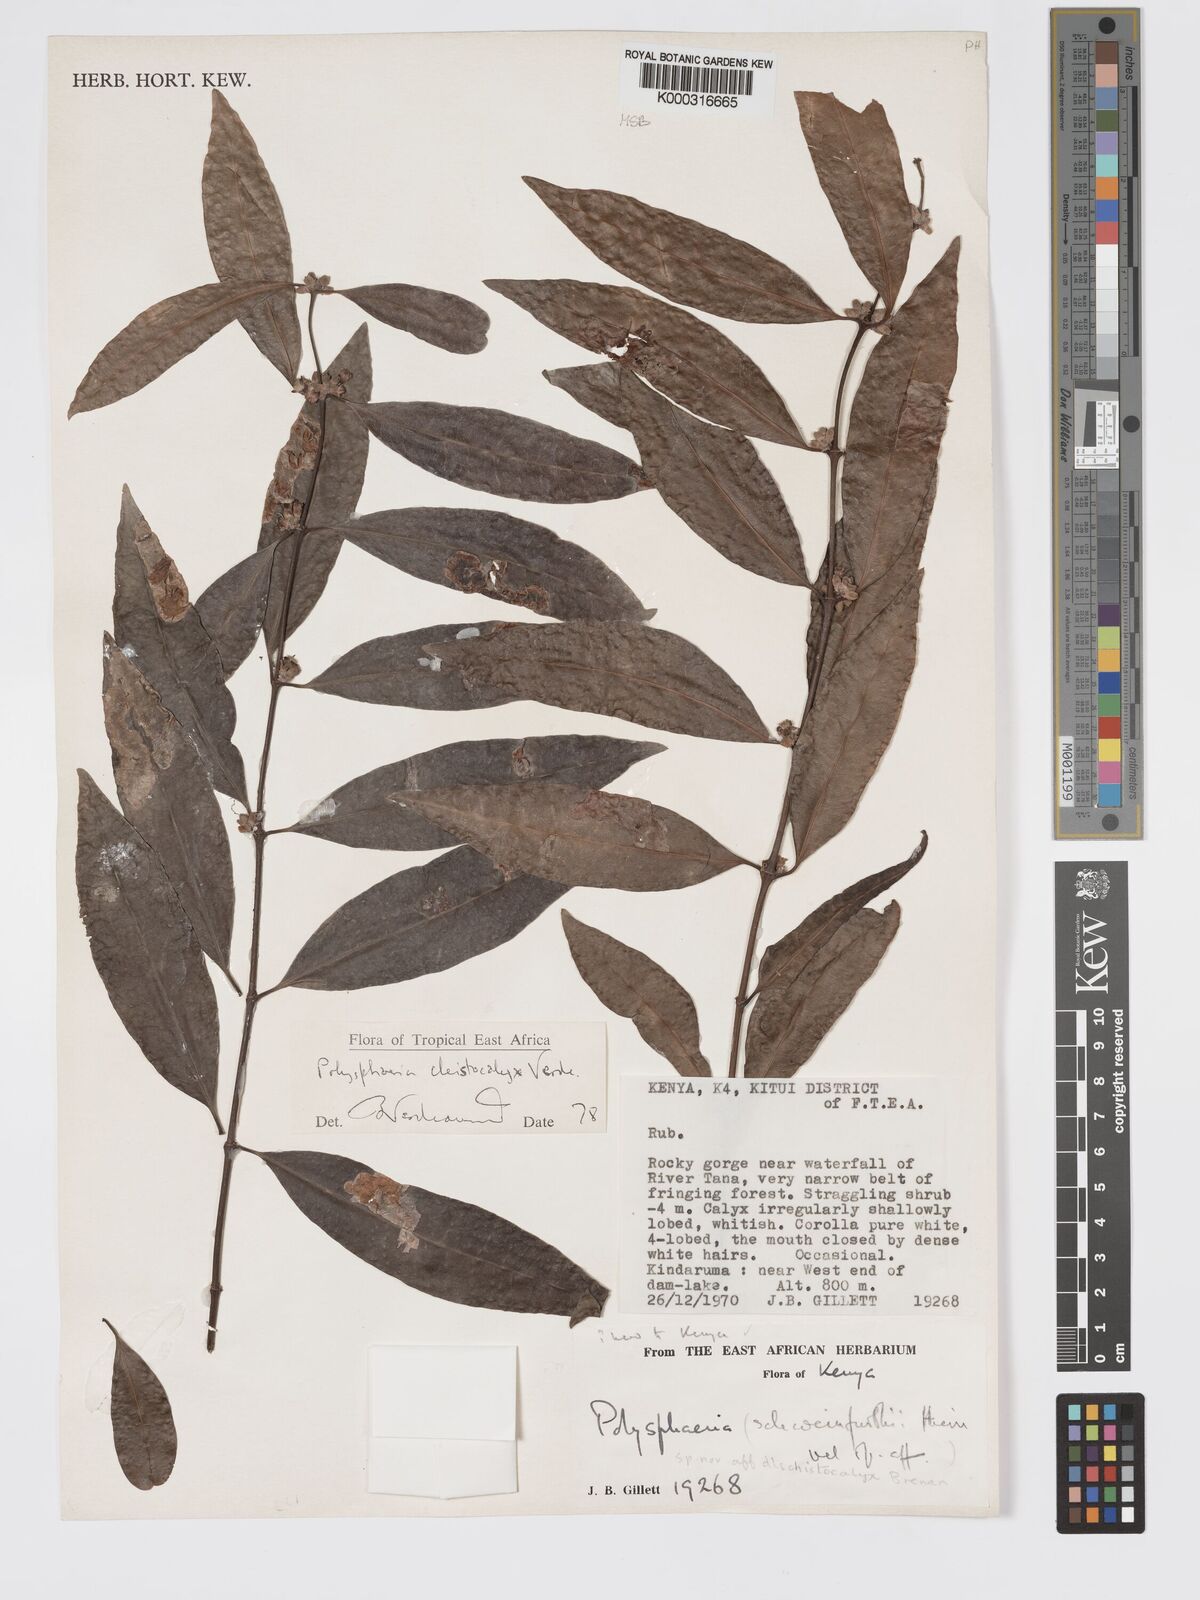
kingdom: Plantae
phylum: Tracheophyta
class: Magnoliopsida
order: Gentianales
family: Rubiaceae
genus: Polysphaeria
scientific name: Polysphaeria cleistocalyx
